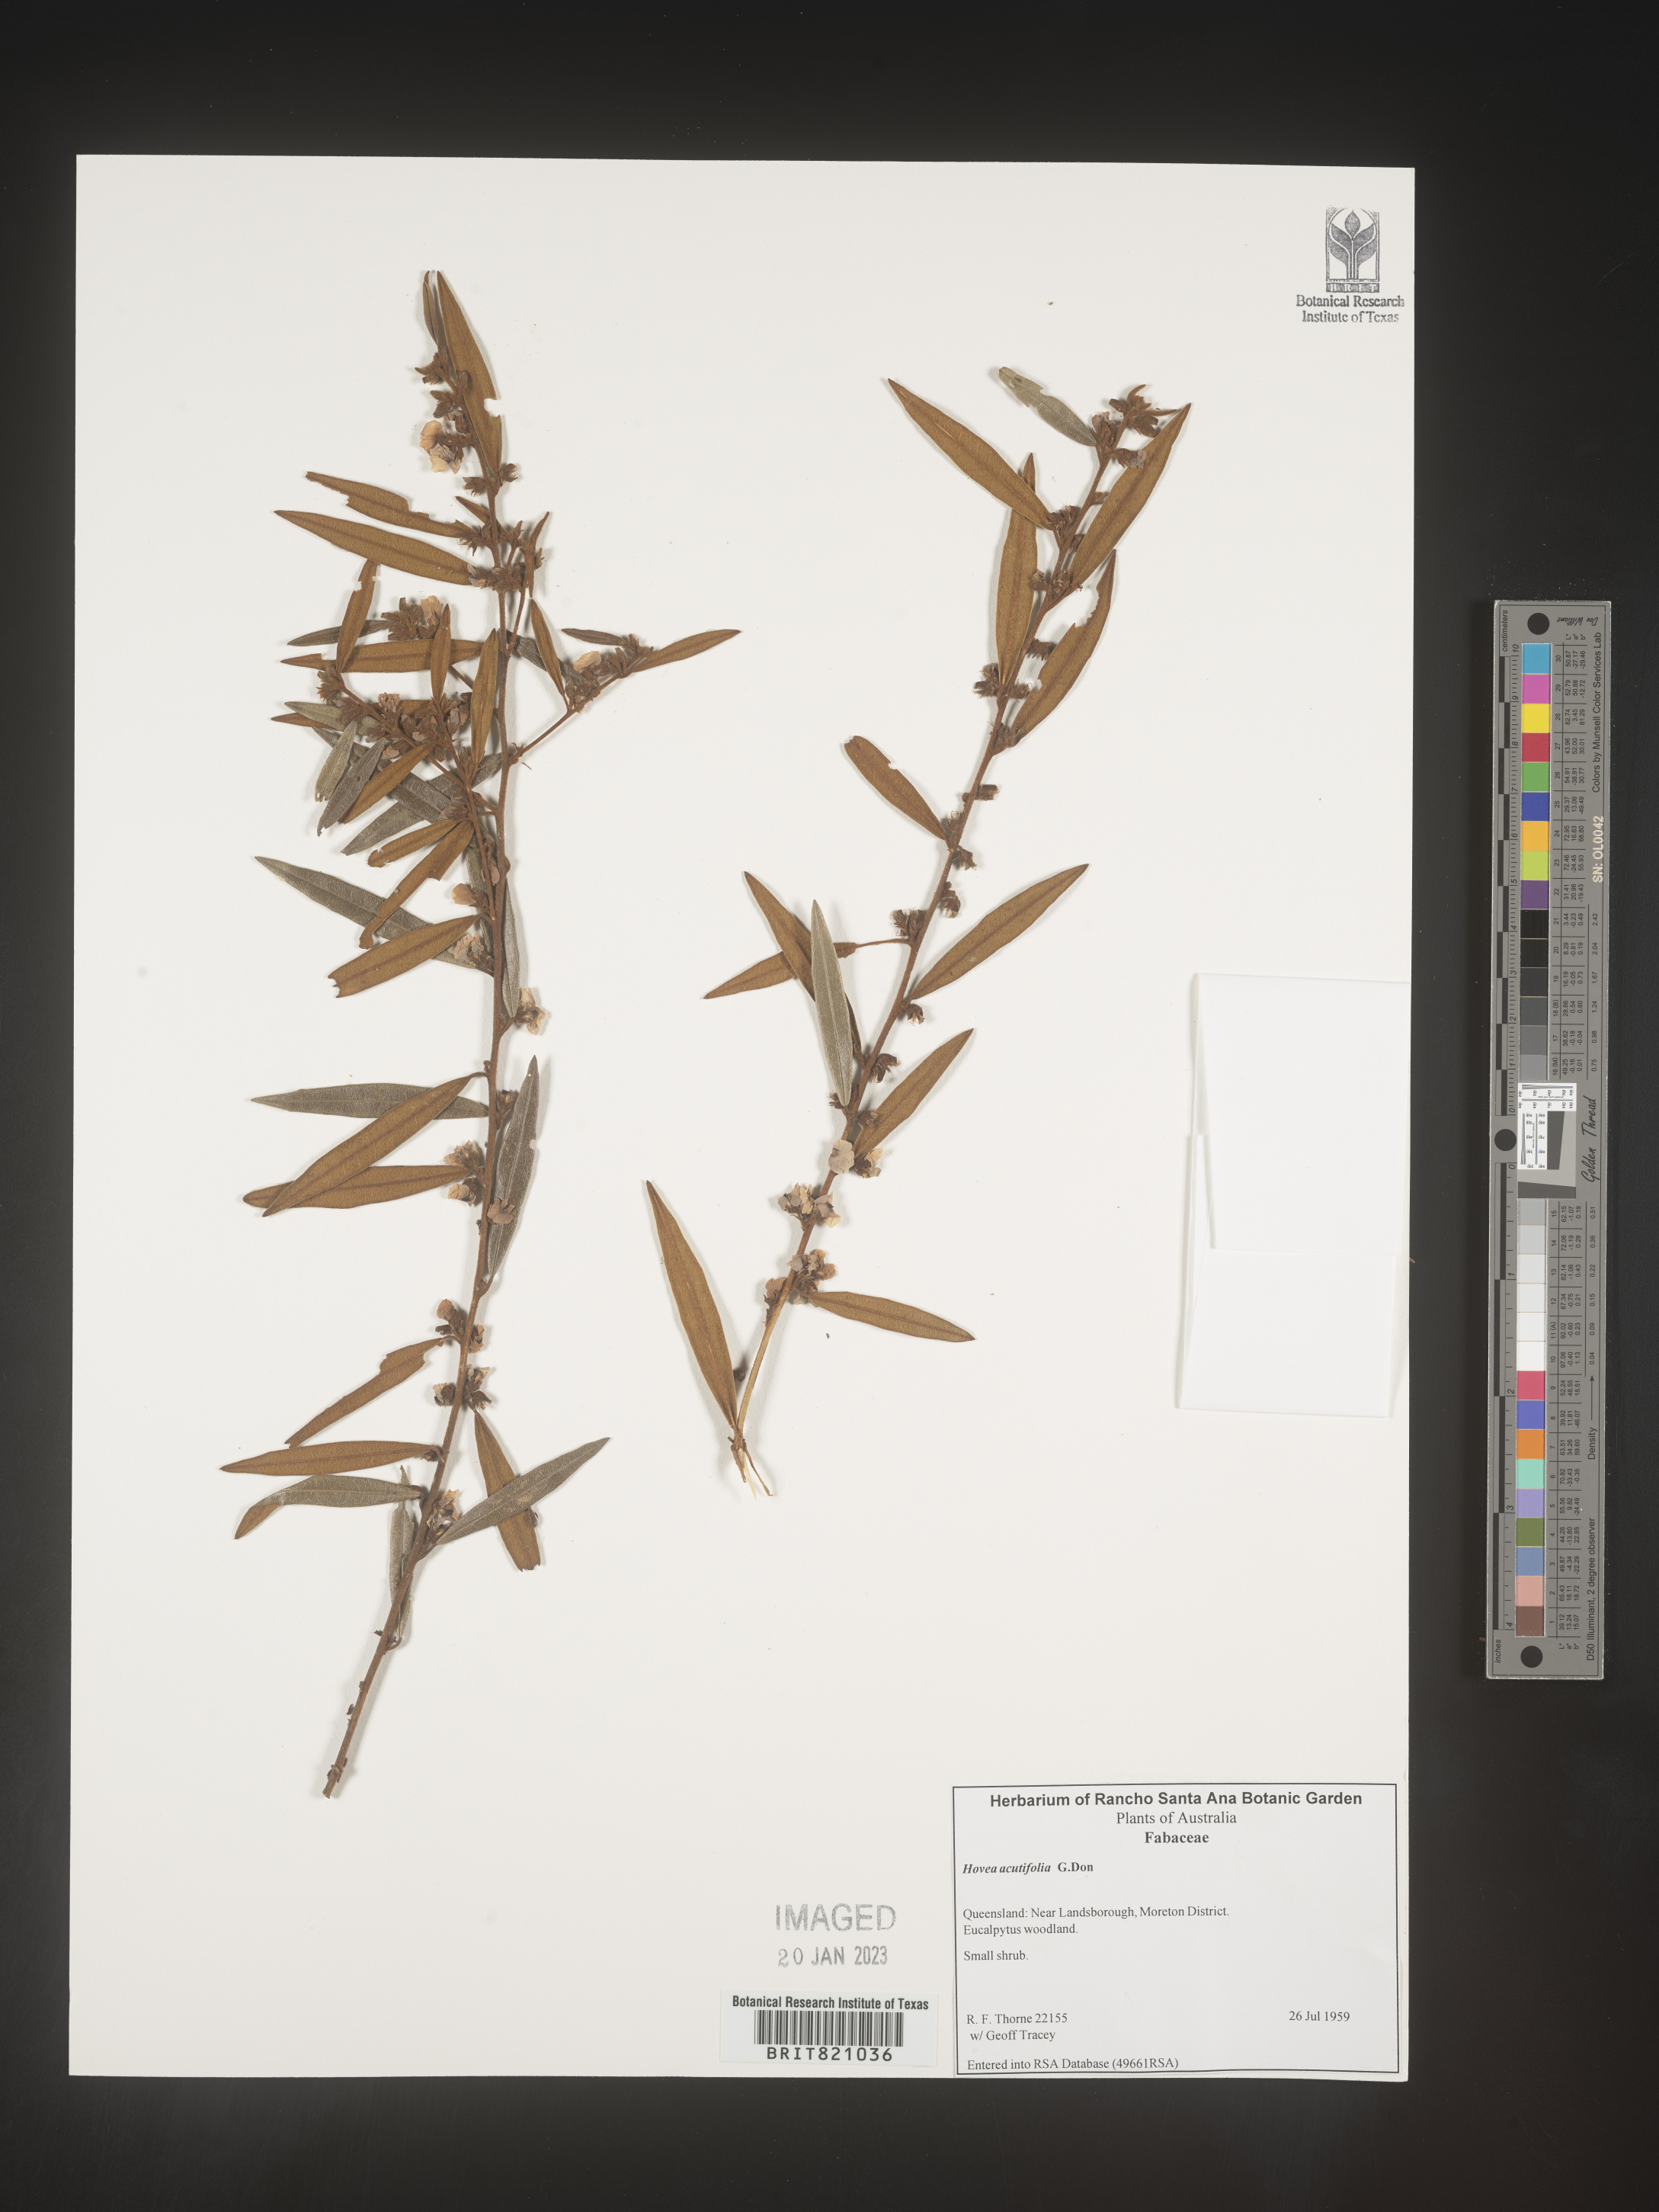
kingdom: Plantae
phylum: Tracheophyta
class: Magnoliopsida
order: Fabales
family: Fabaceae
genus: Hovea
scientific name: Hovea
